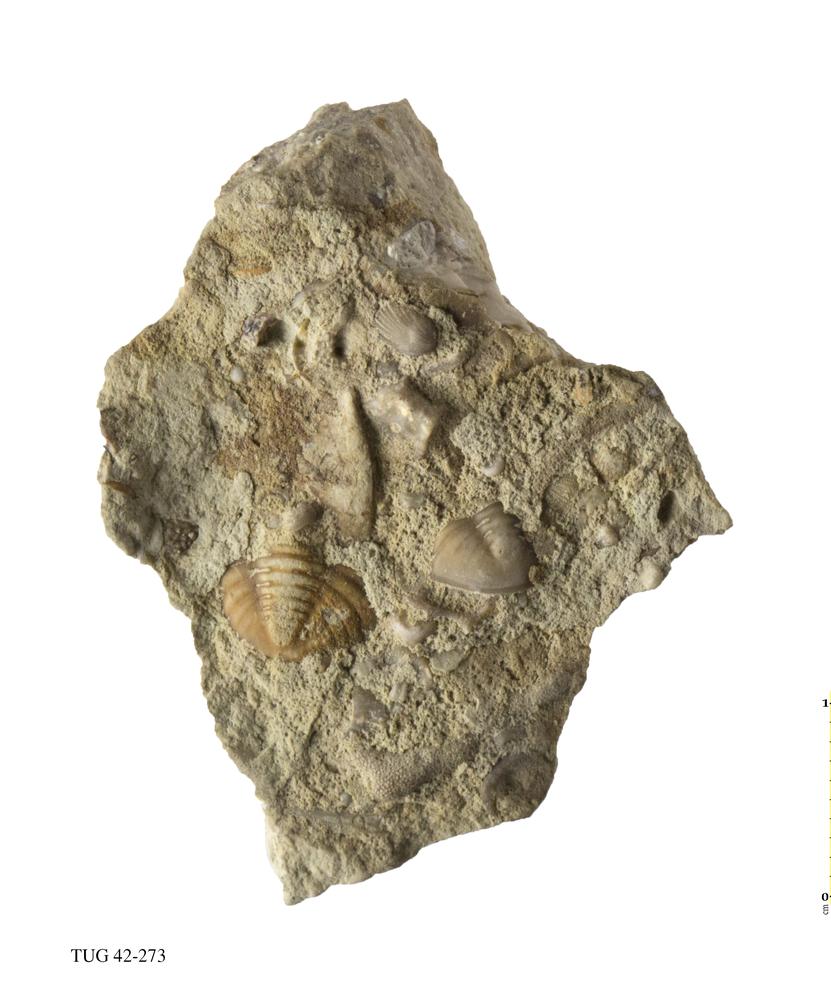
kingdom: Animalia
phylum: Arthropoda
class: Trilobita
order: Corynexochida
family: Illaenidae
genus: Illaenus
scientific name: Illaenus
